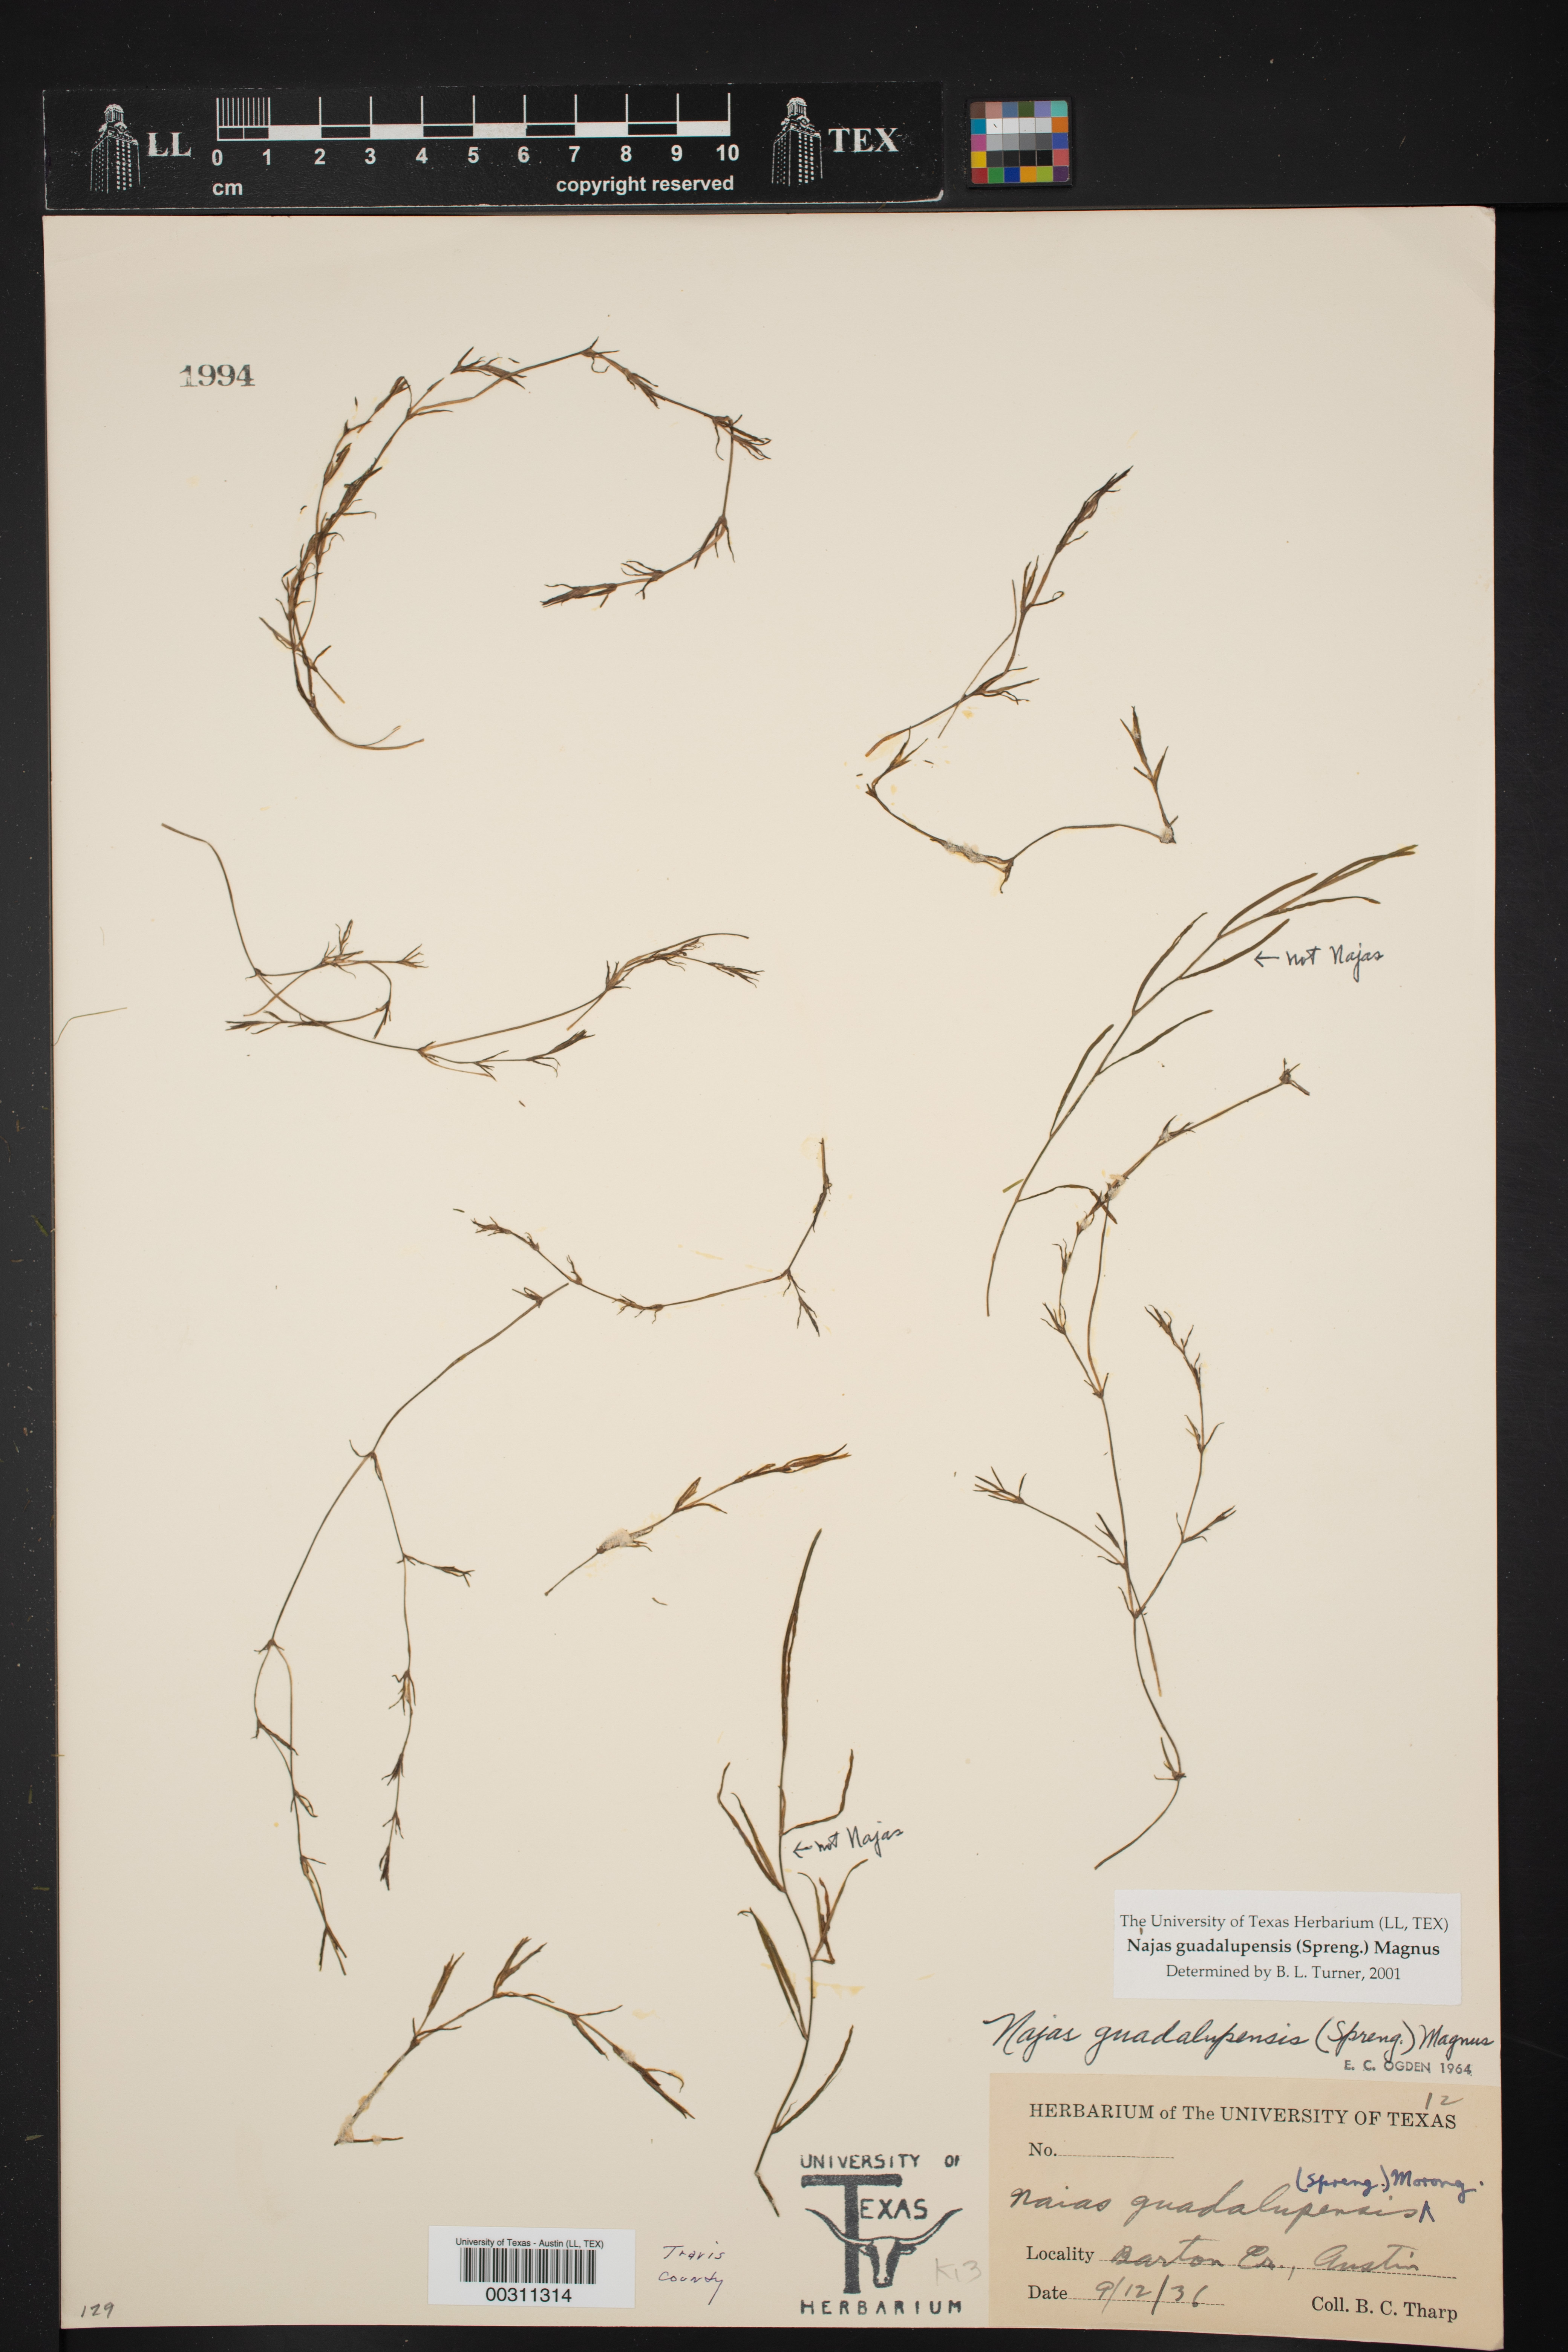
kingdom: Plantae
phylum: Tracheophyta
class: Liliopsida
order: Alismatales
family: Hydrocharitaceae
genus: Najas
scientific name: Najas guadalupensis
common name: Southern naiad
